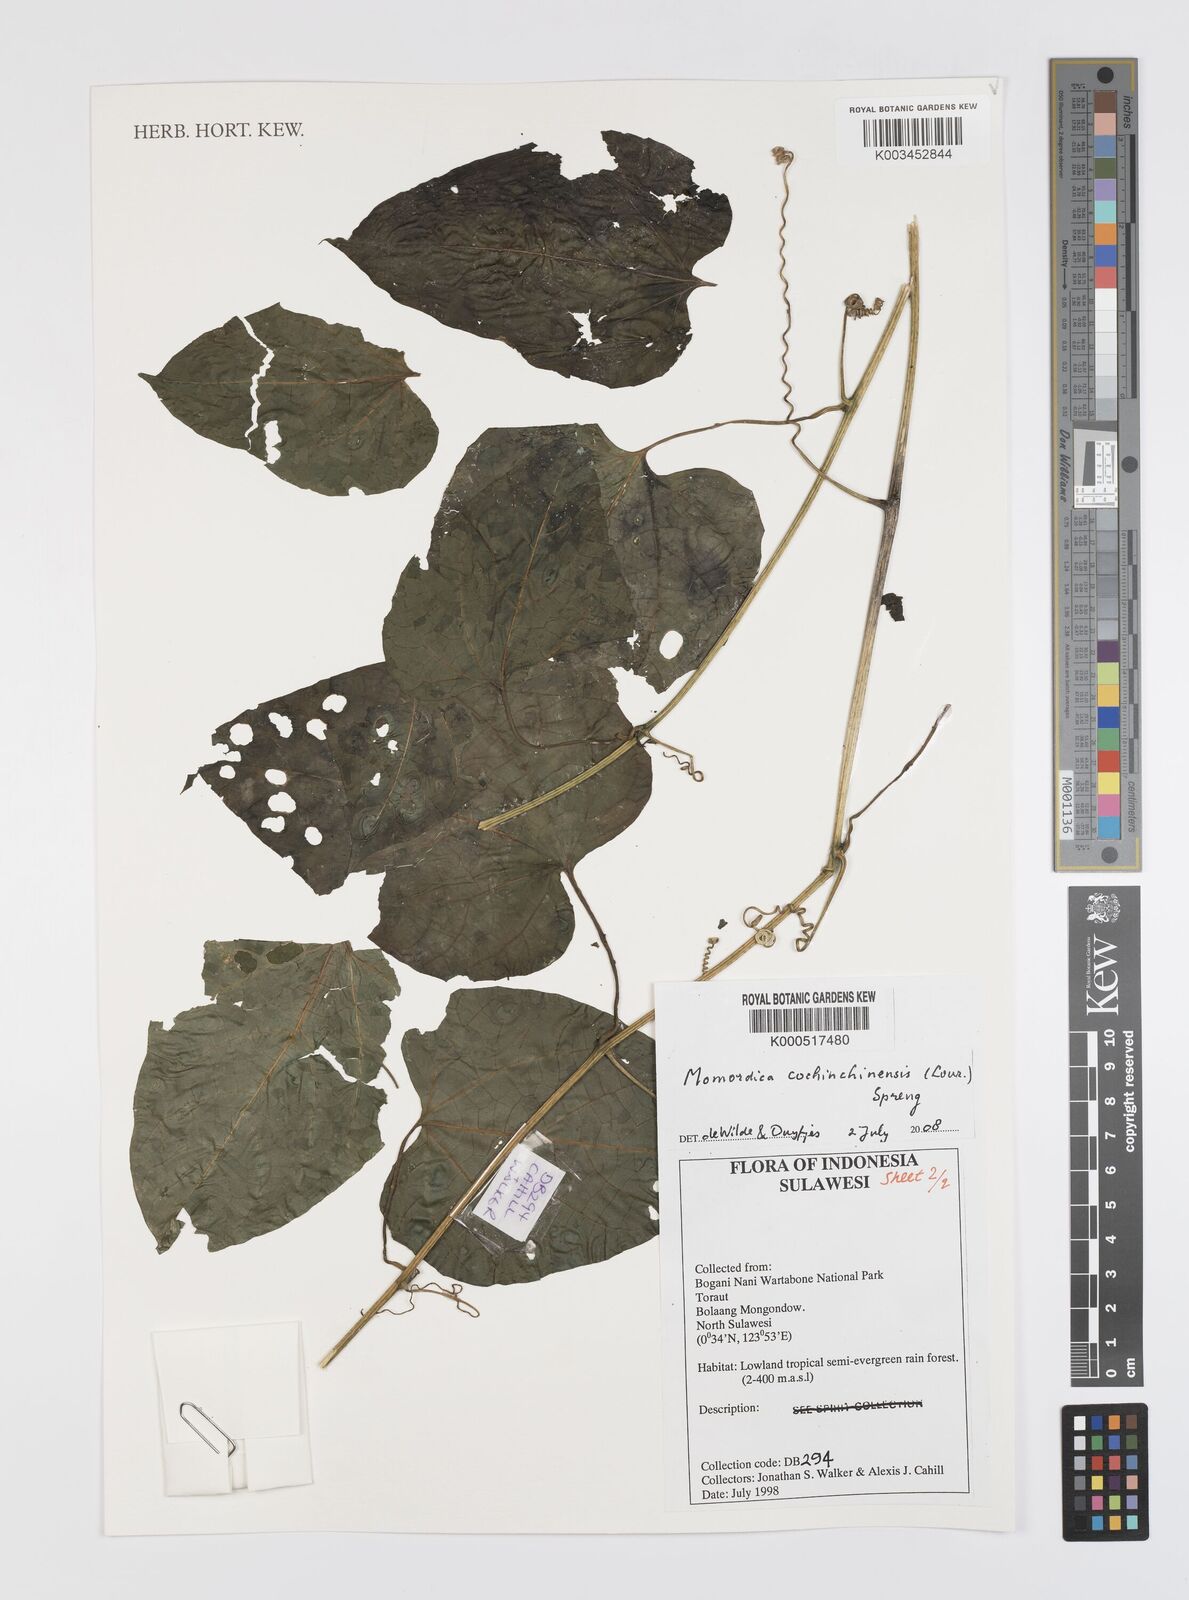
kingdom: Plantae
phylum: Tracheophyta
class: Magnoliopsida
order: Cucurbitales
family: Cucurbitaceae
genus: Momordica
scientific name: Momordica cochinchinensis
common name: Chinese bitter-cucumber
